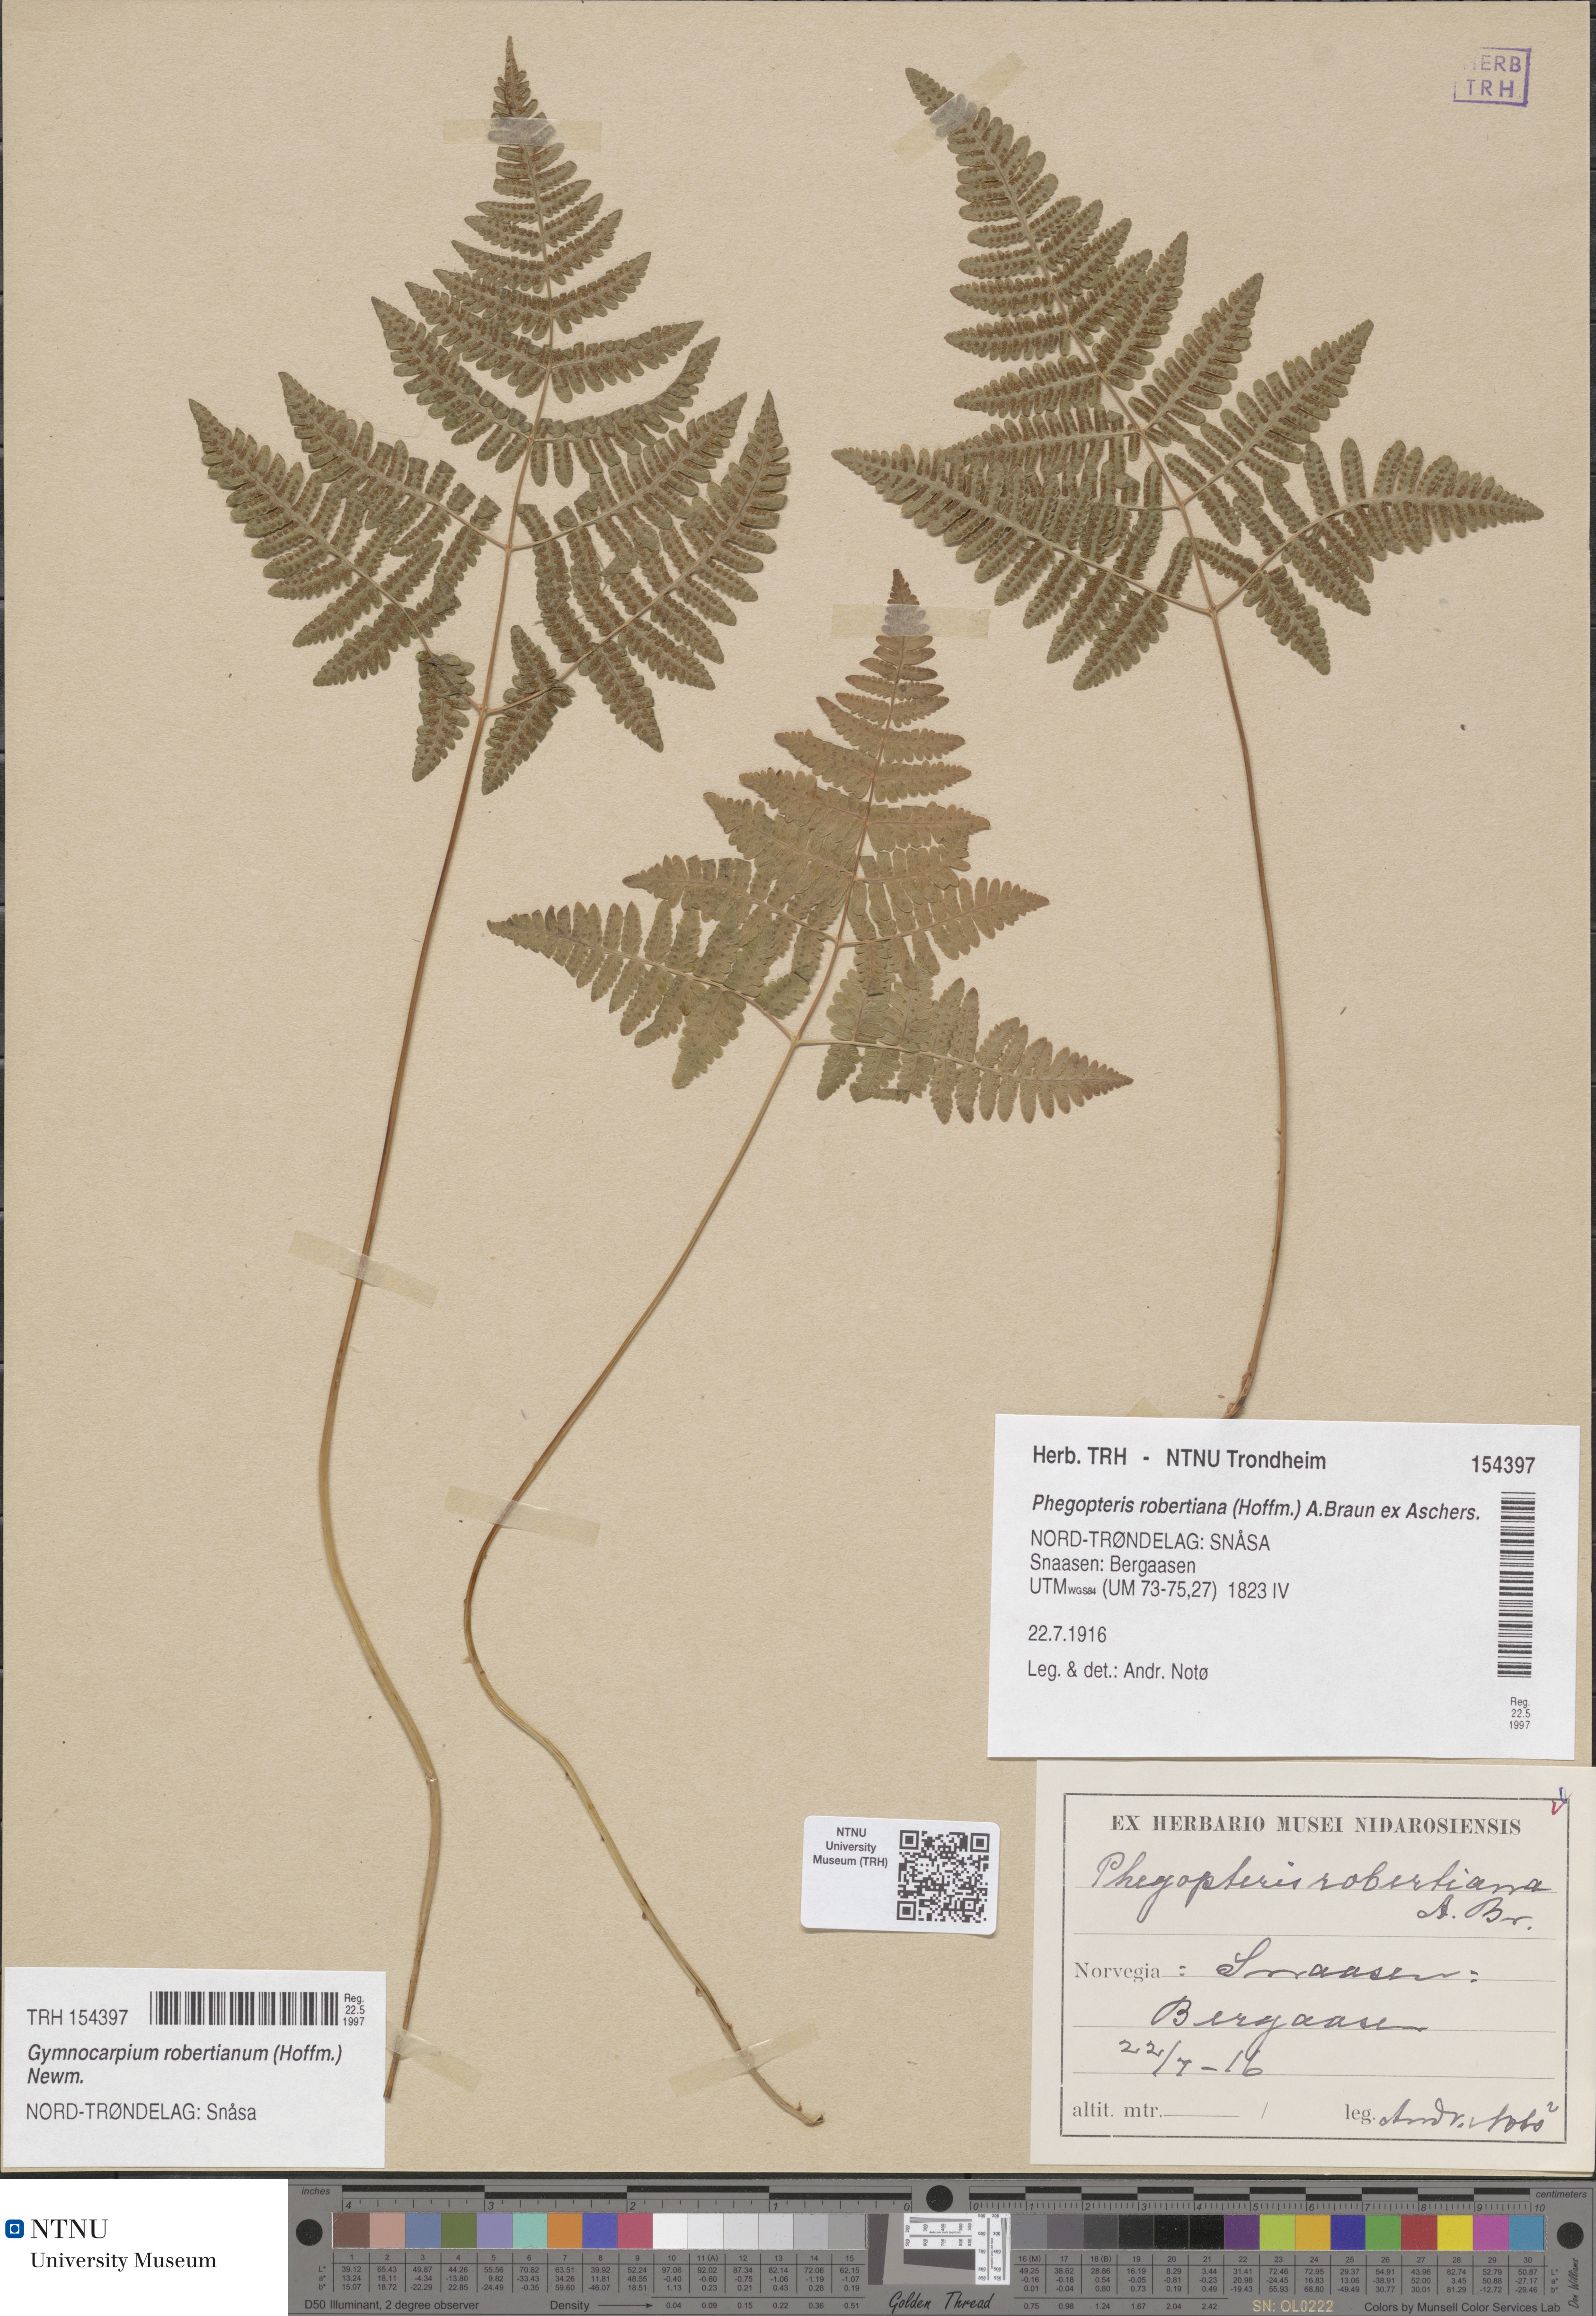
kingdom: Plantae
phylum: Tracheophyta
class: Polypodiopsida
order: Polypodiales
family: Cystopteridaceae
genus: Gymnocarpium
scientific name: Gymnocarpium robertianum
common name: Limestone fern
